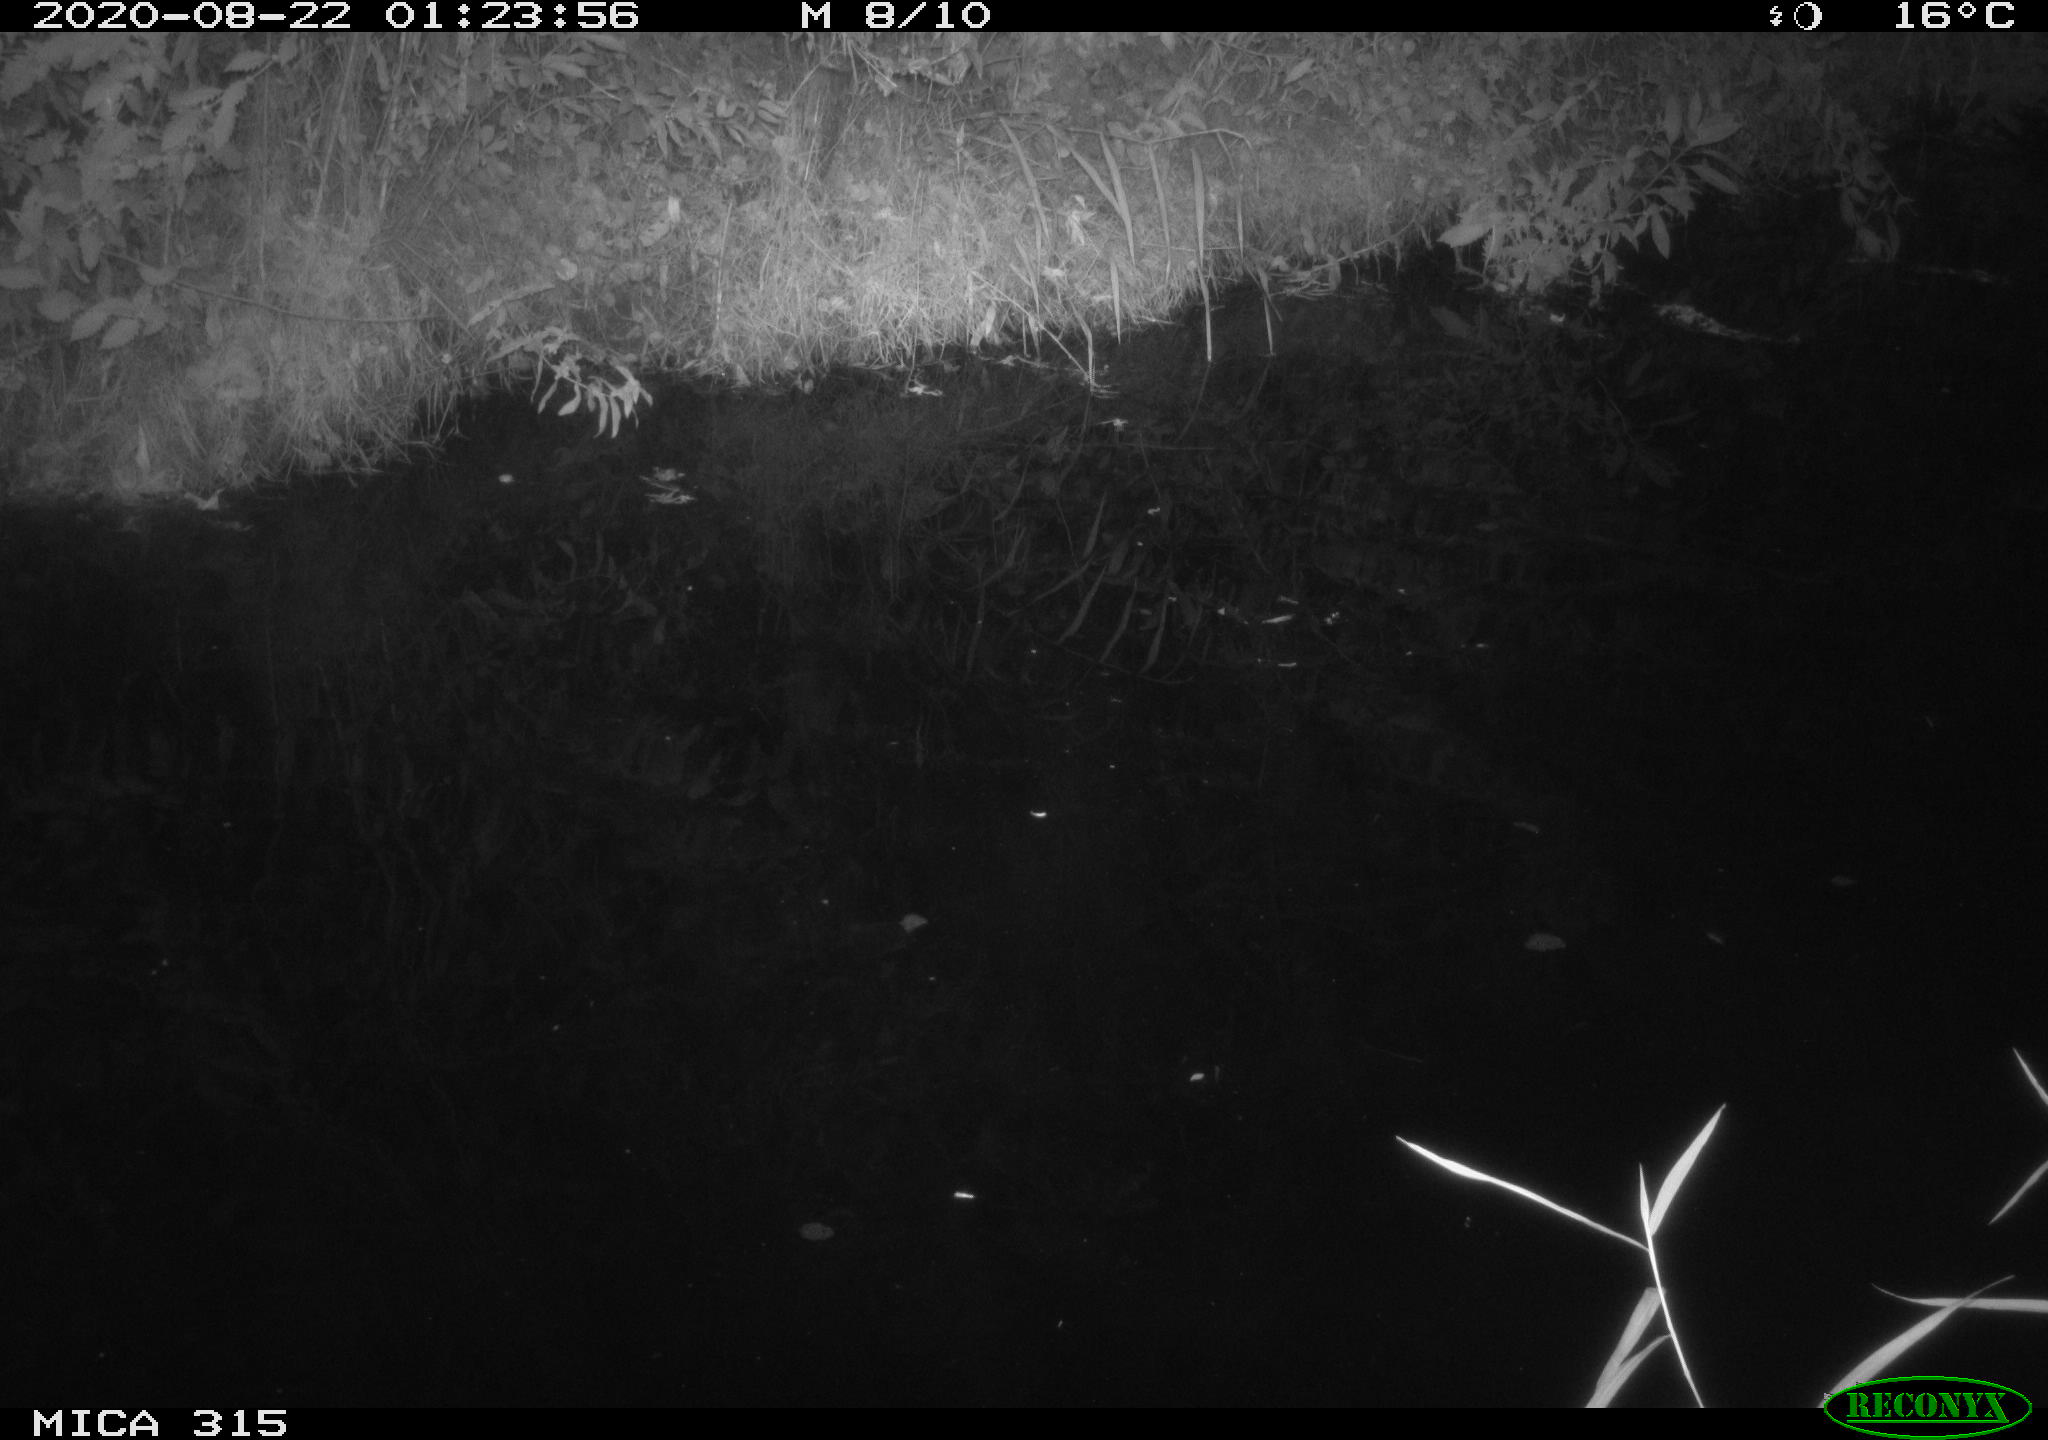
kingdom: Animalia
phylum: Chordata
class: Aves
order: Anseriformes
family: Anatidae
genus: Anas
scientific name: Anas platyrhynchos
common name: Mallard
